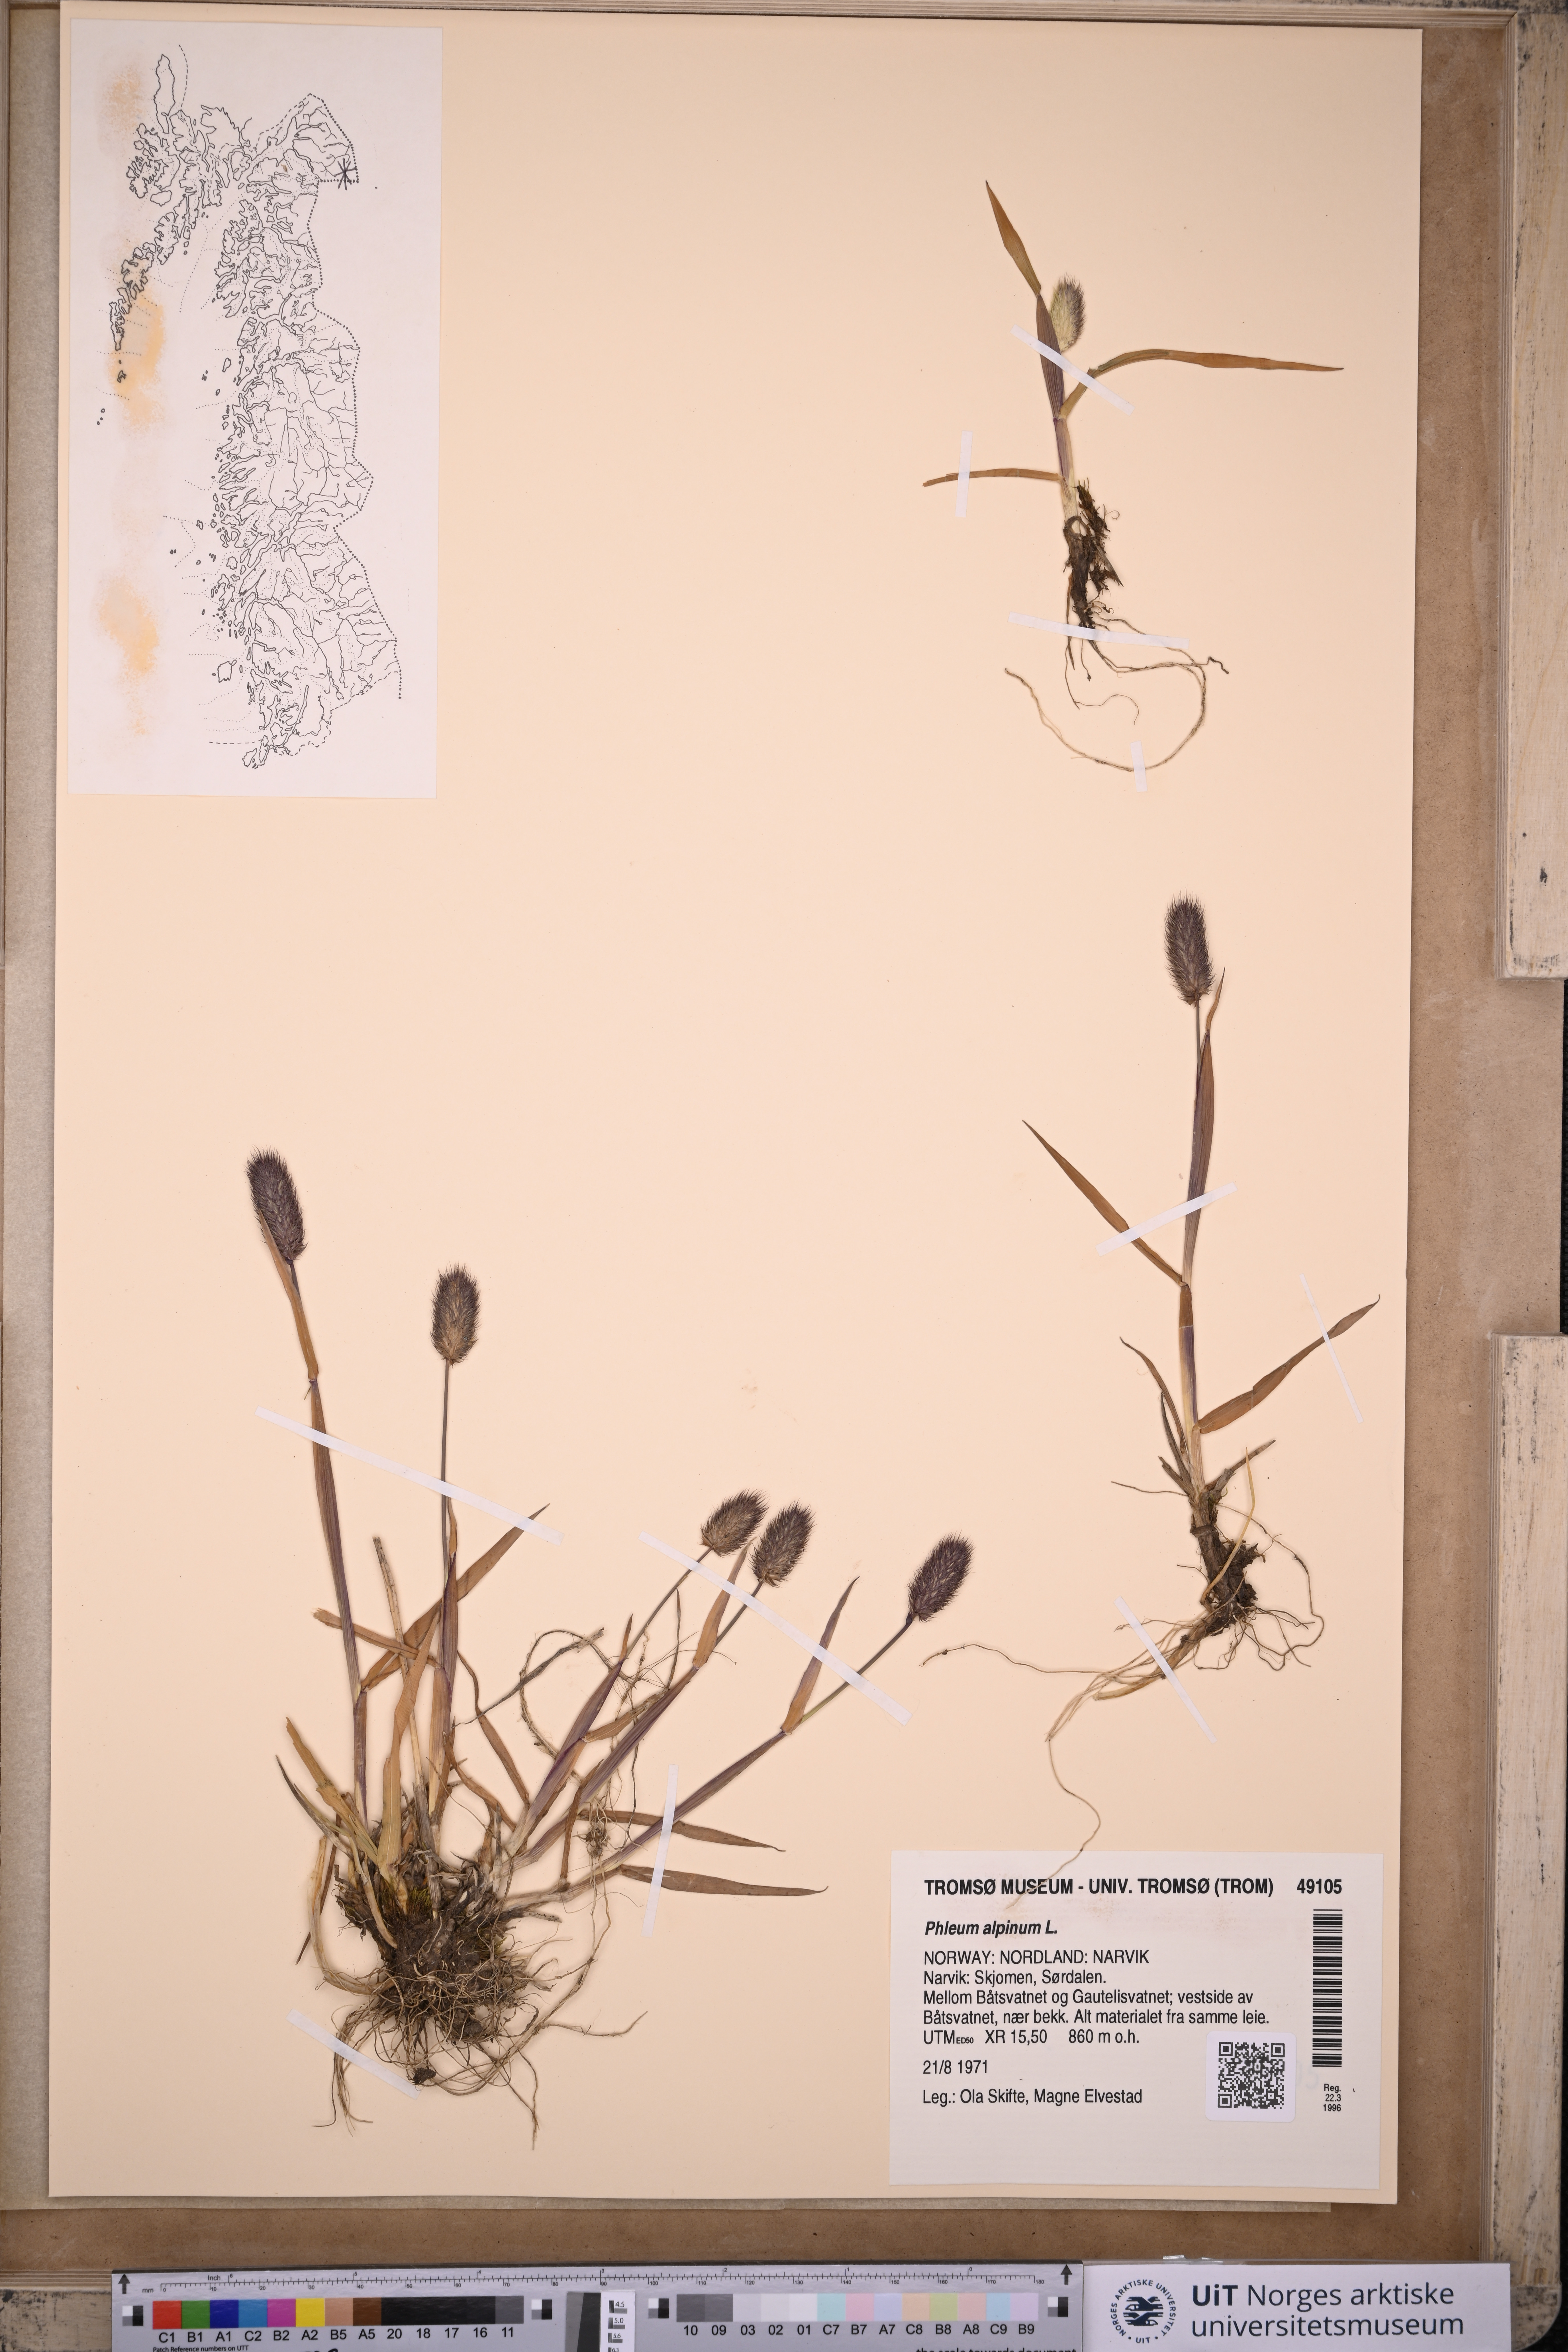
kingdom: Plantae
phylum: Tracheophyta
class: Liliopsida
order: Poales
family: Poaceae
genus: Phleum
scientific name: Phleum alpinum
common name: Alpine cat's-tail
